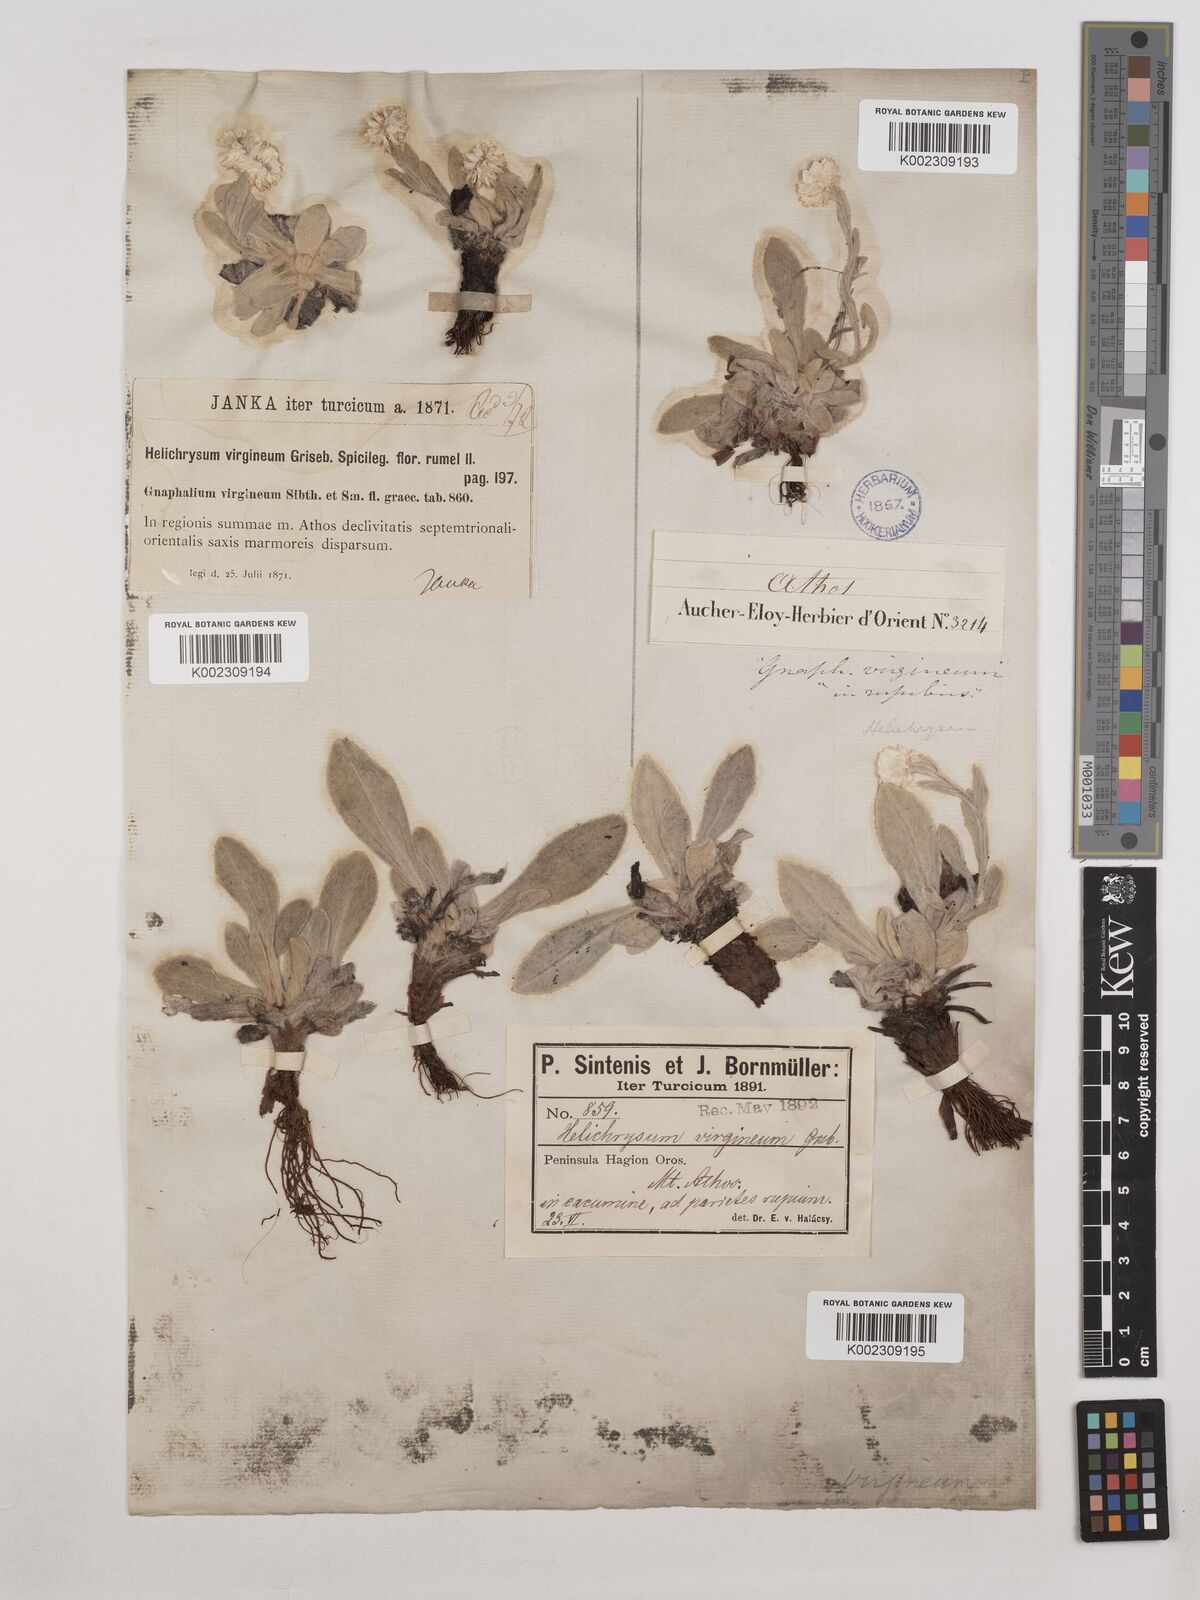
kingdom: Plantae
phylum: Tracheophyta
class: Magnoliopsida
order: Asterales
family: Asteraceae
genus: Helichrysum
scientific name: Helichrysum sibthorpii
